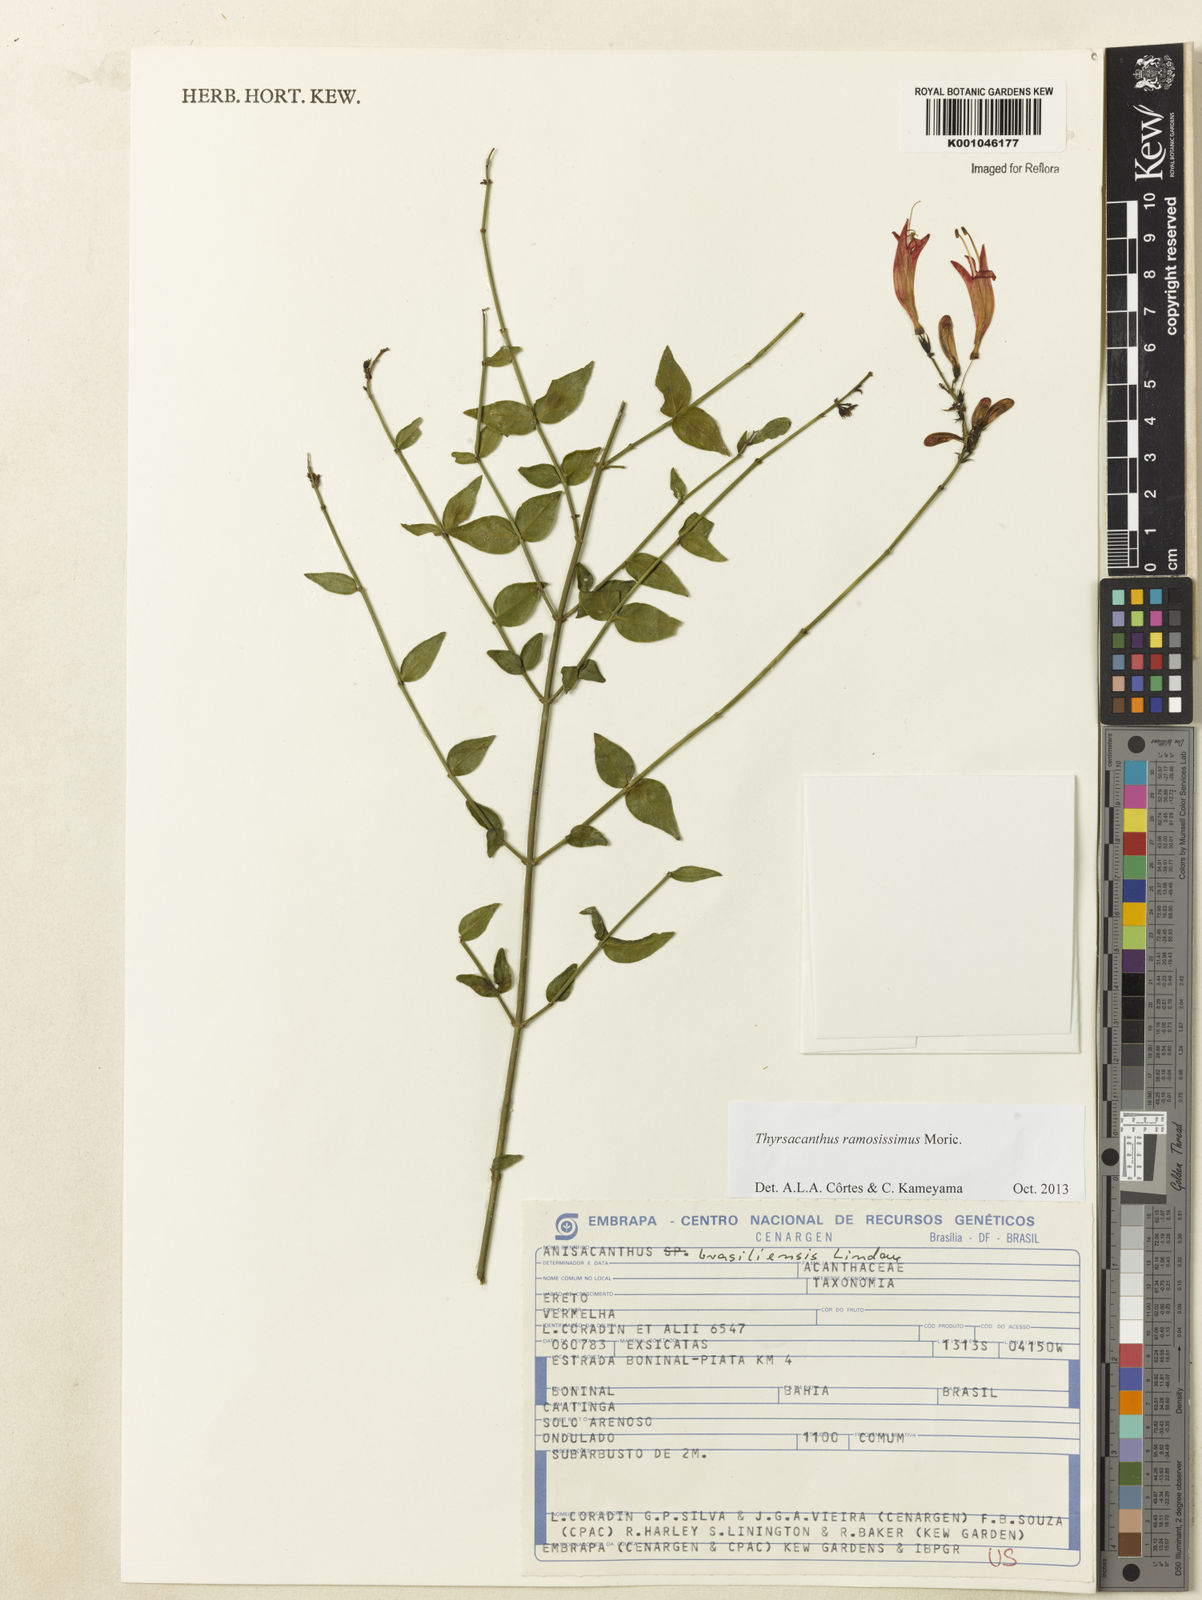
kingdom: Plantae
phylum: Tracheophyta
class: Magnoliopsida
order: Lamiales
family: Acanthaceae
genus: Thyrsacanthus
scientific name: Thyrsacanthus ramosissimus
